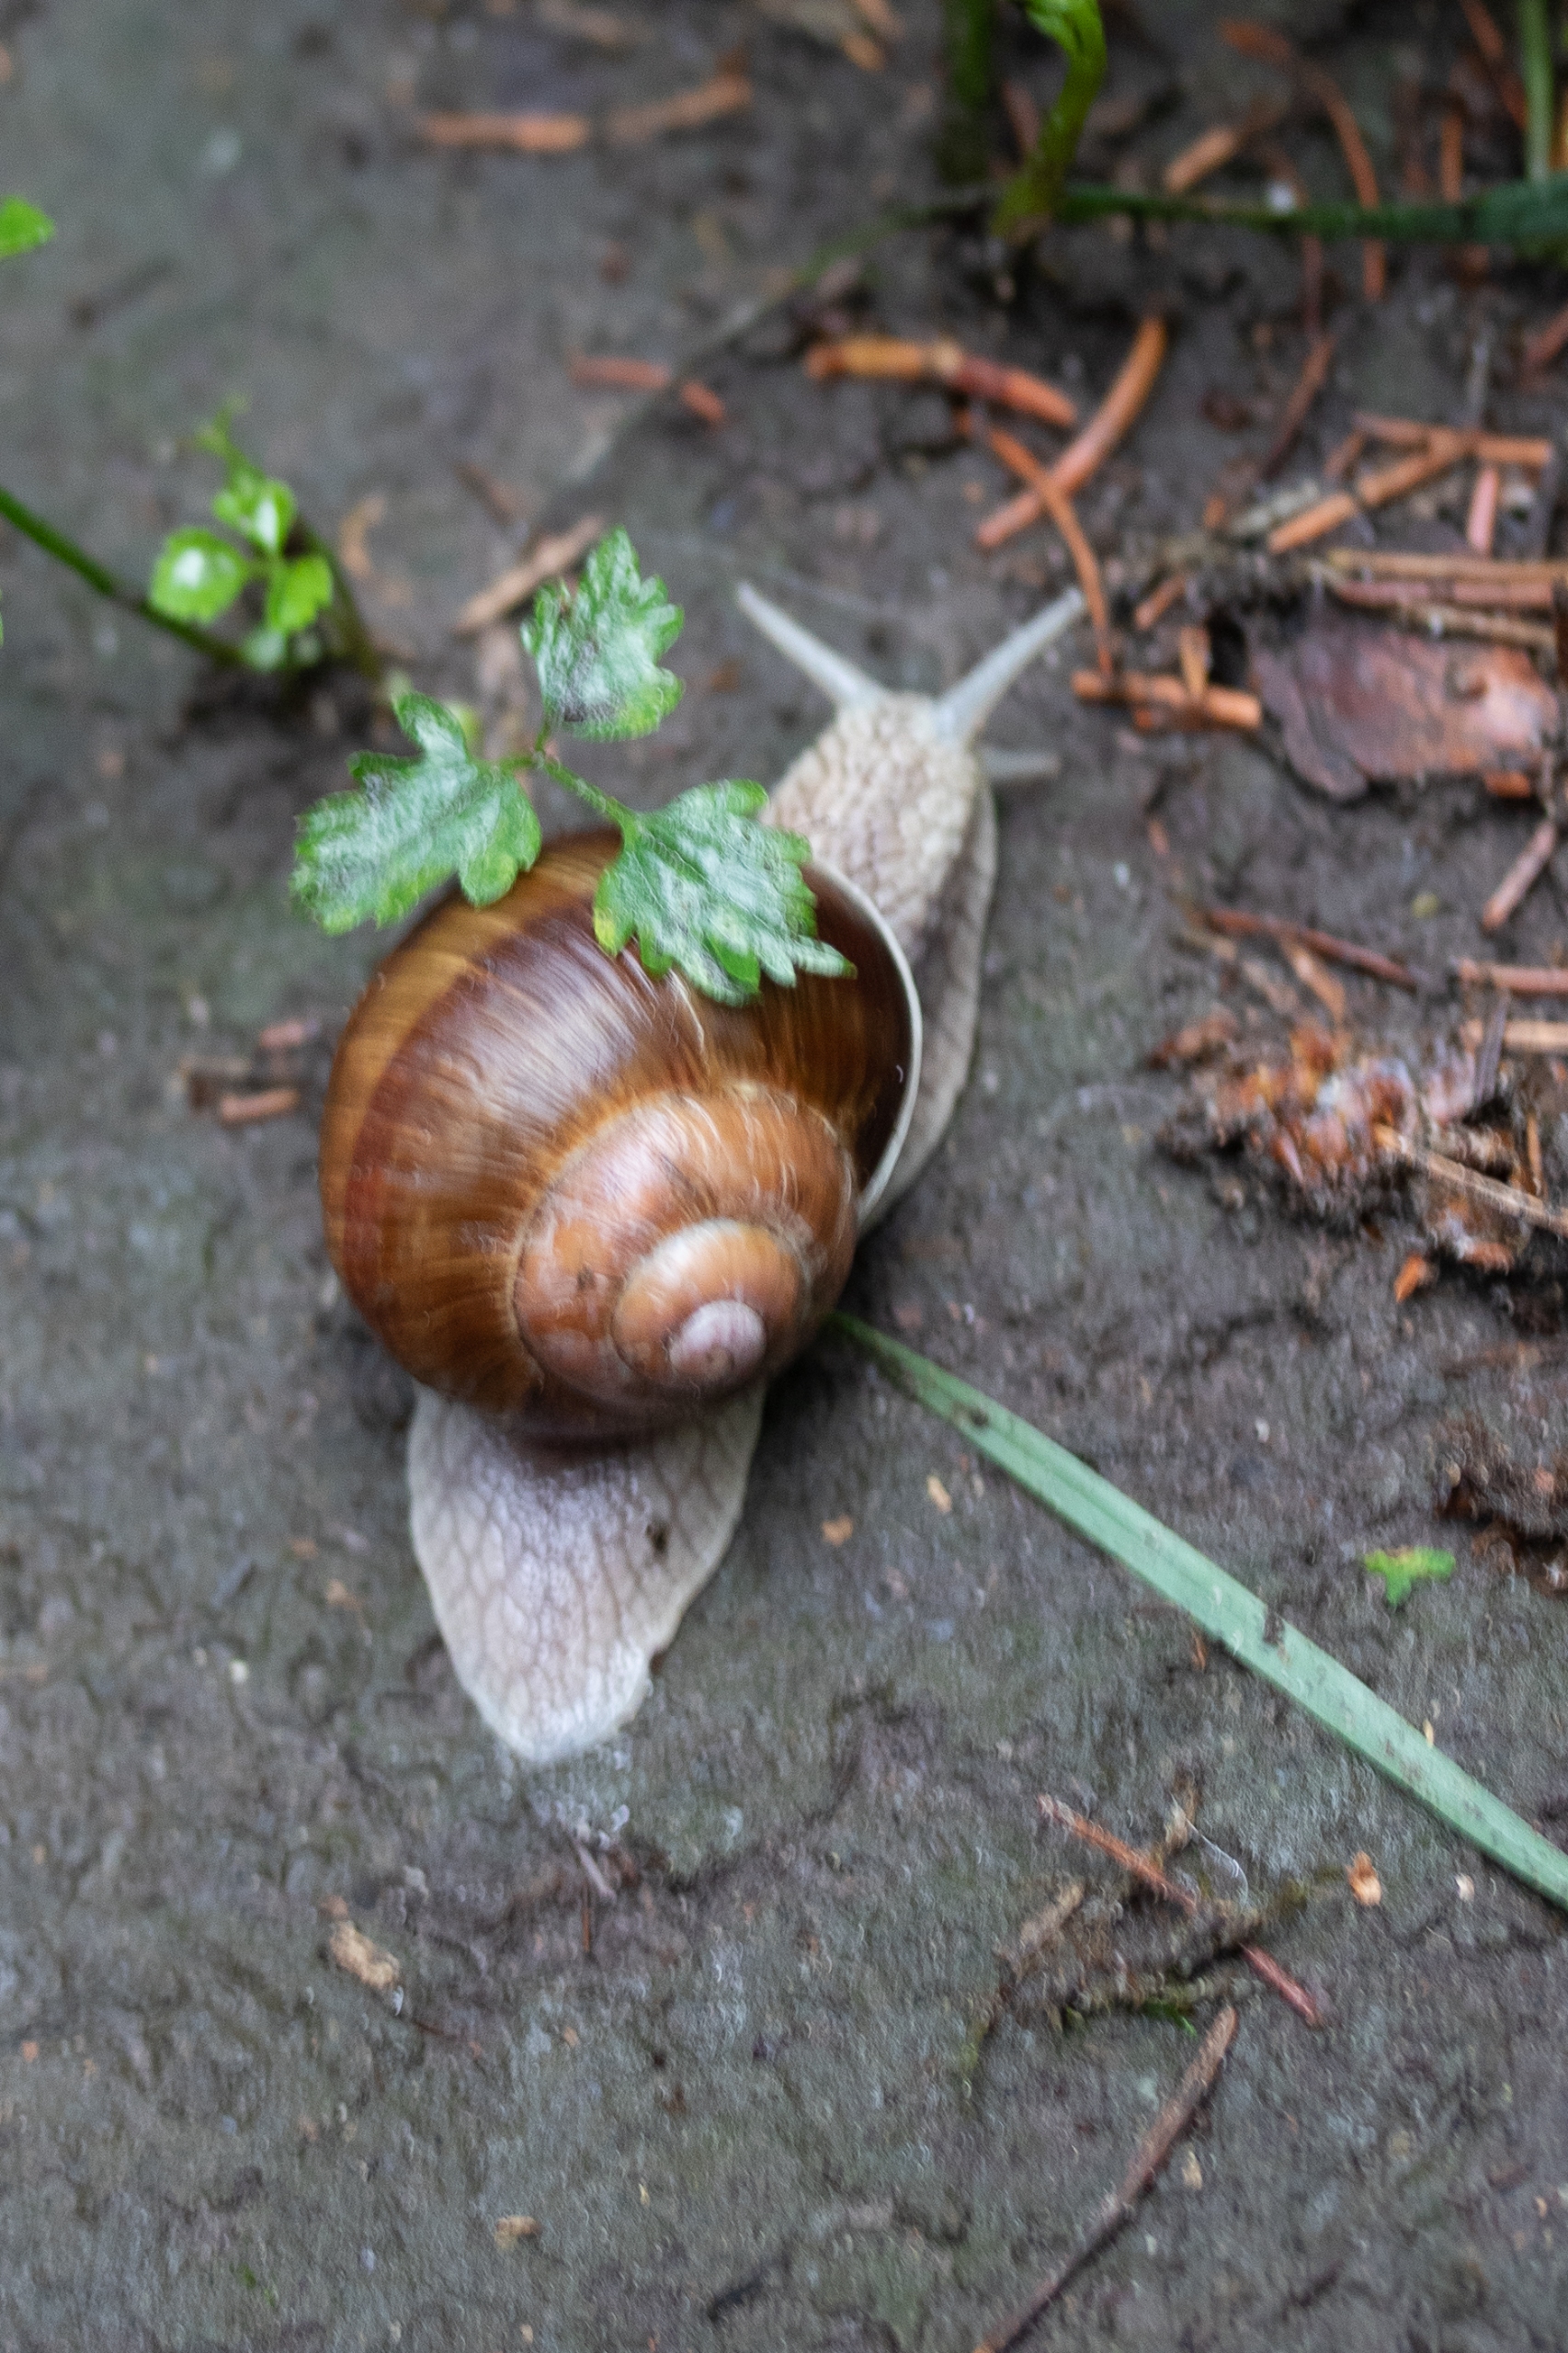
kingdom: Animalia
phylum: Mollusca
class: Gastropoda
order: Stylommatophora
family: Helicidae
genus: Helix
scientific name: Helix pomatia
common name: Vinbjergsnegl
